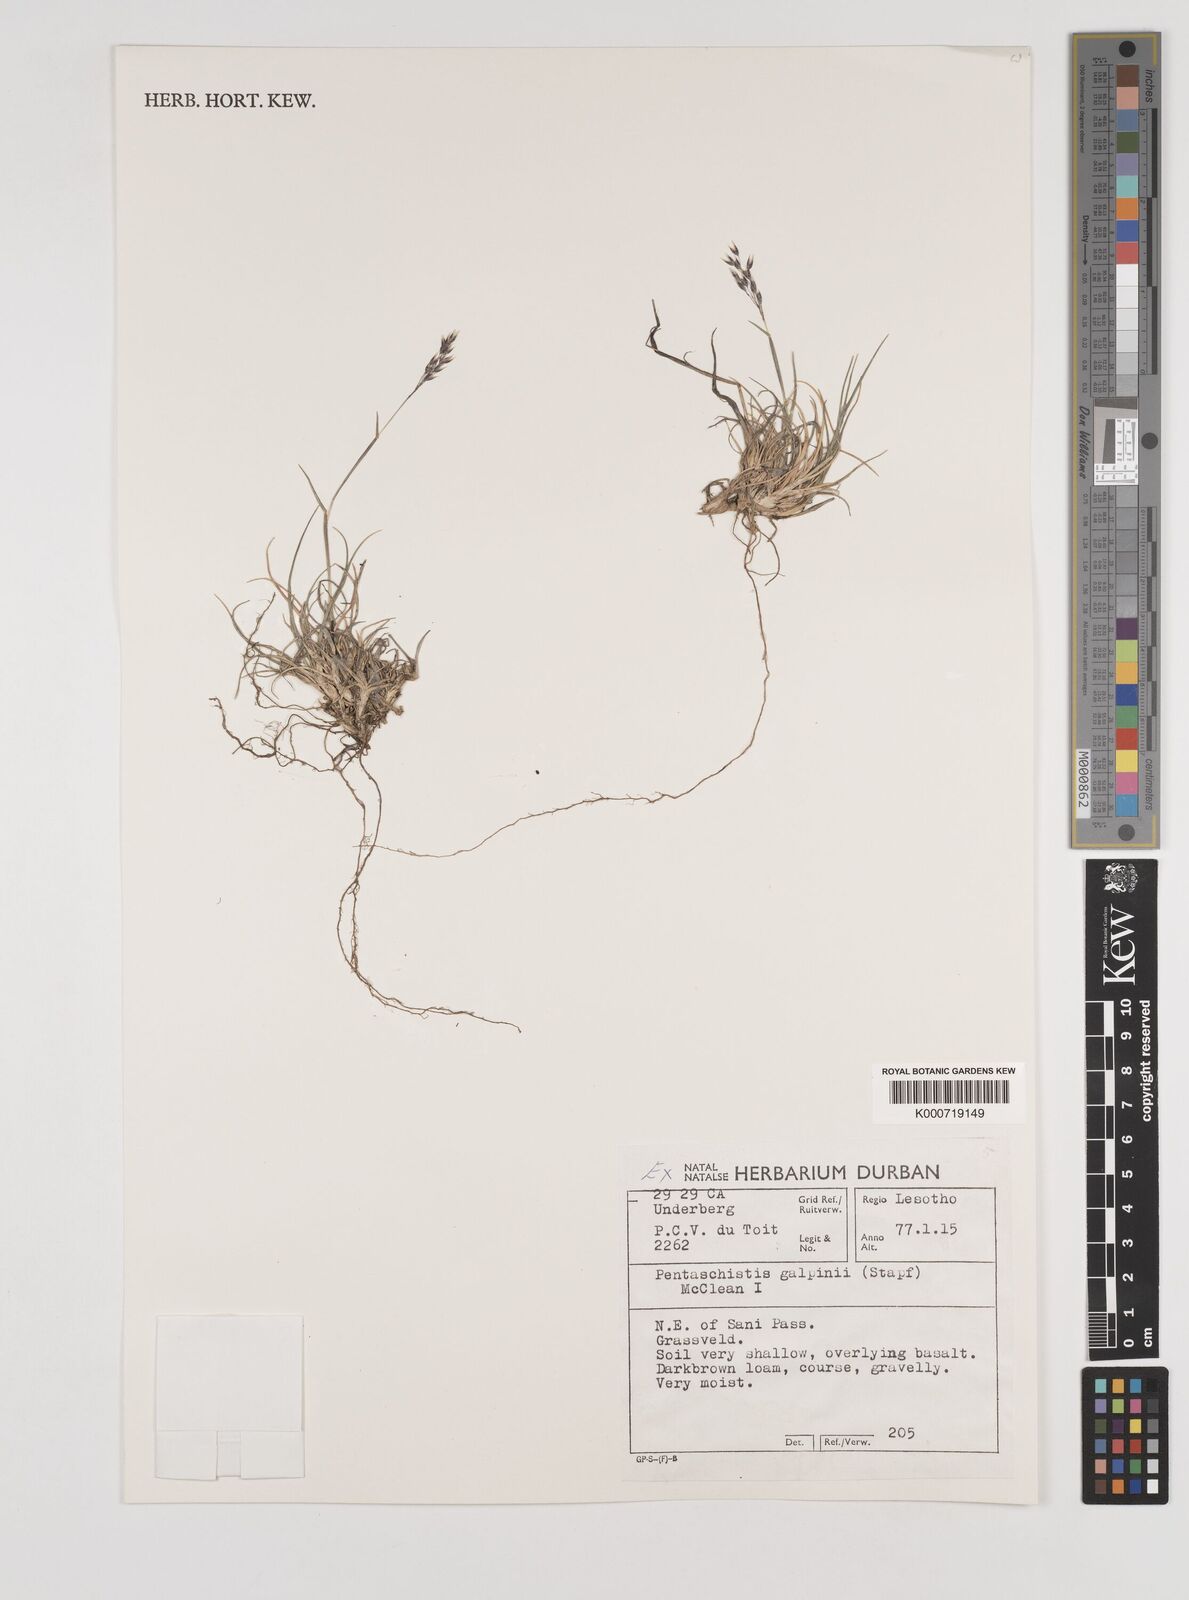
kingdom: Plantae
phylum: Tracheophyta
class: Liliopsida
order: Poales
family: Poaceae
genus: Pentameris
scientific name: Pentameris galpinii
